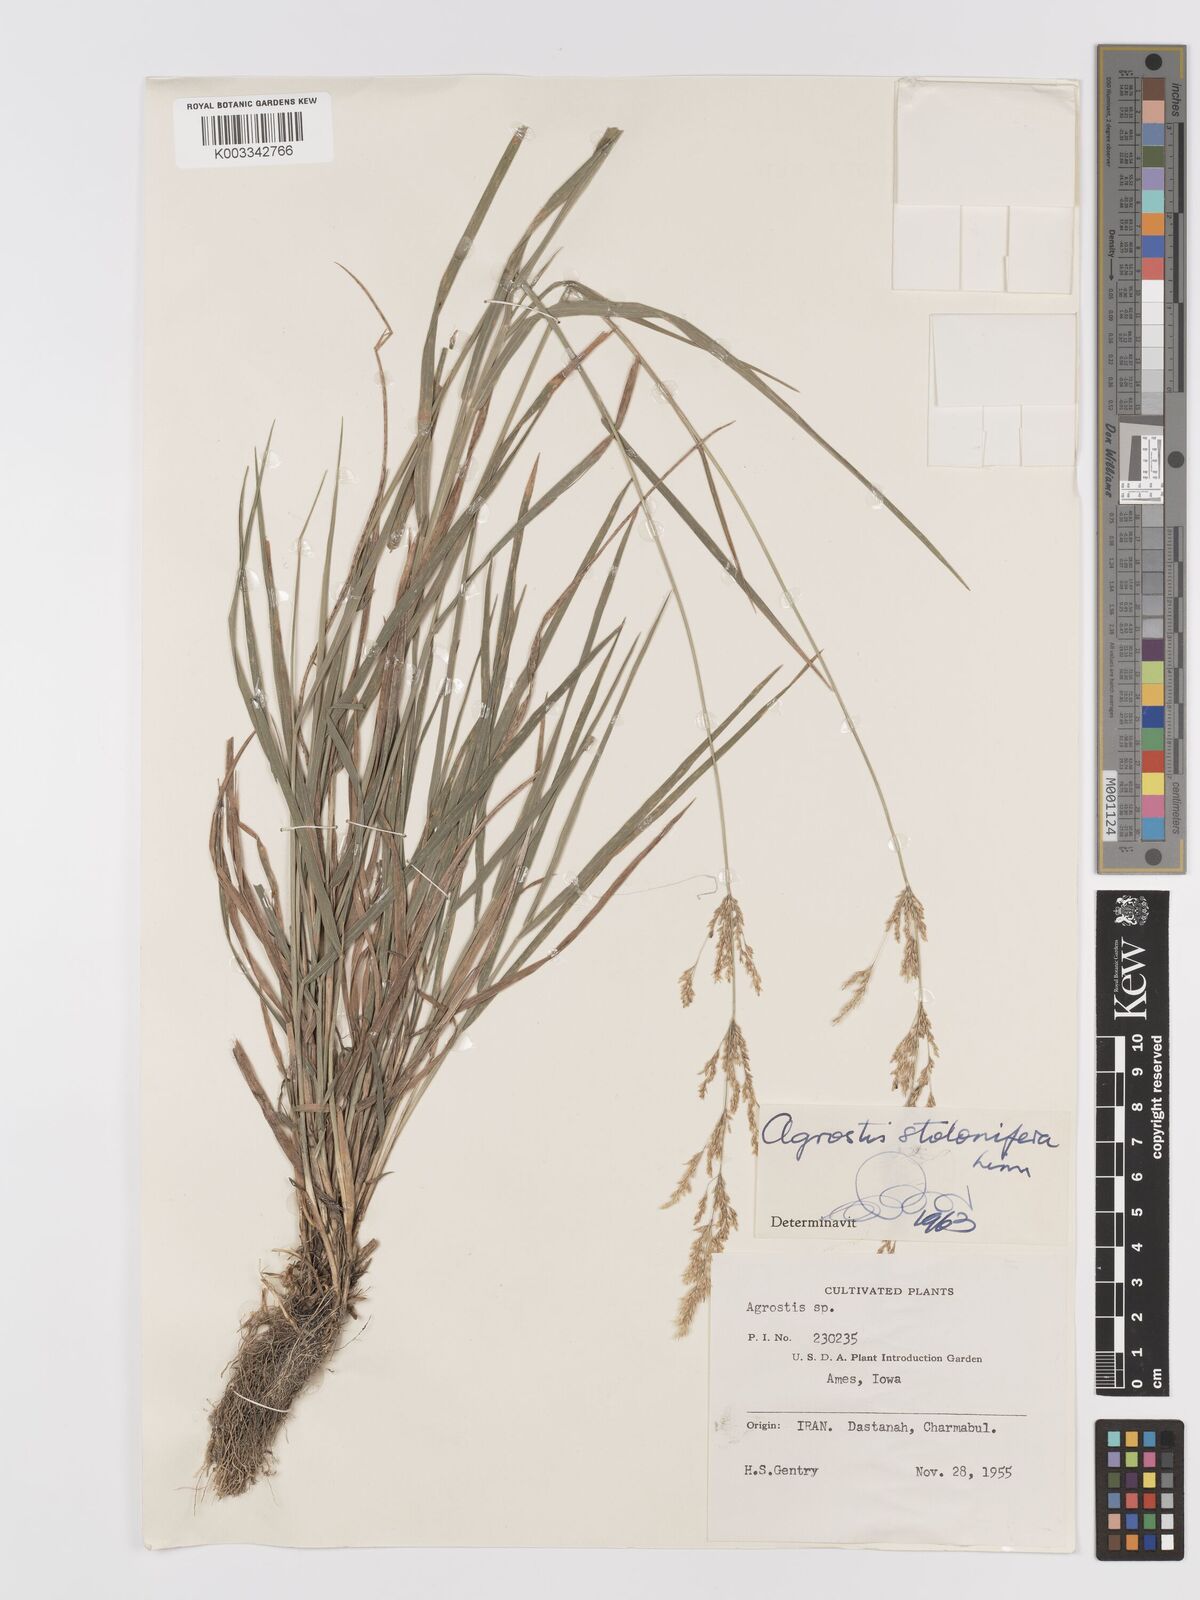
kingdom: Plantae
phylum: Tracheophyta
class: Liliopsida
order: Poales
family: Poaceae
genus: Agrostis
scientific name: Agrostis stolonifera
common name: Creeping bentgrass
